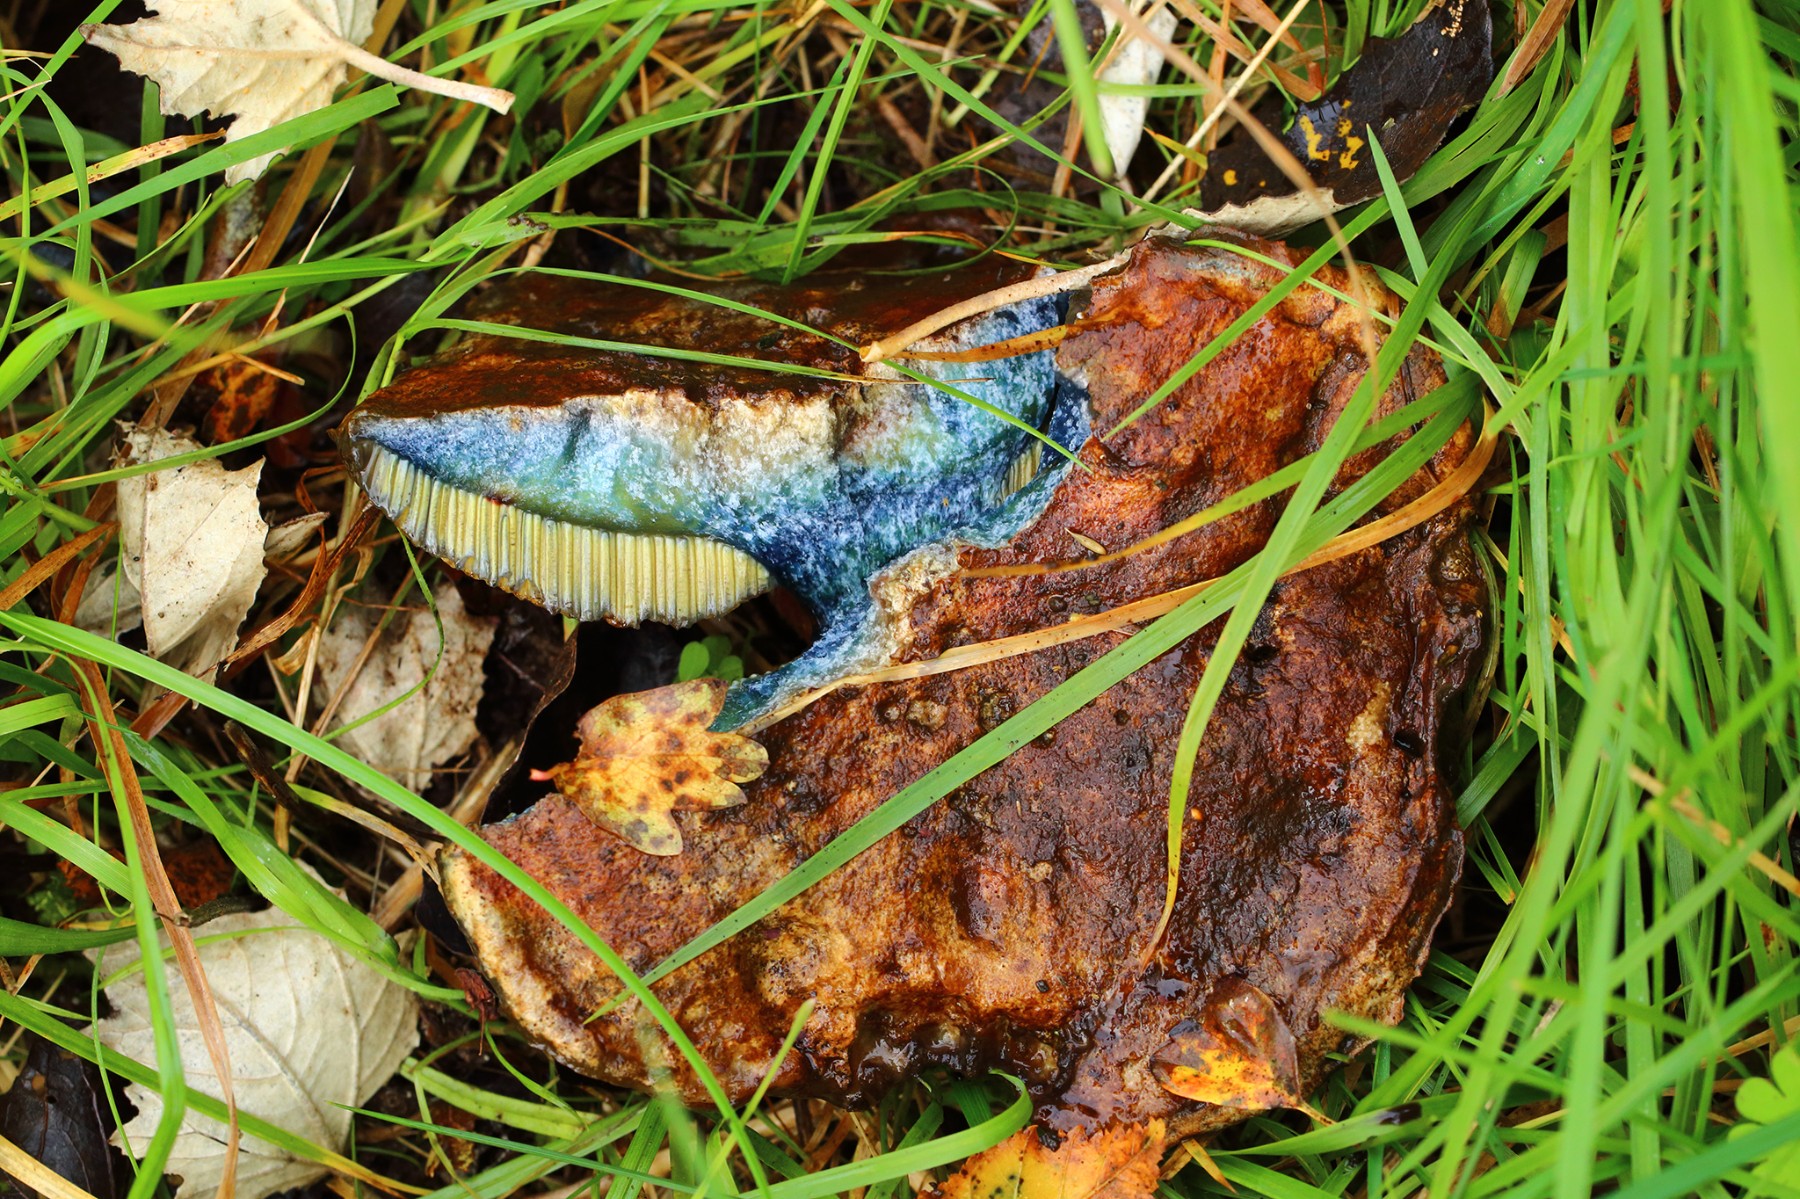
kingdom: Fungi
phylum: Basidiomycota
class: Agaricomycetes
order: Boletales
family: Boletaceae
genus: Cyanoboletus
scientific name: Cyanoboletus pulverulentus
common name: sortblånende rørhat
